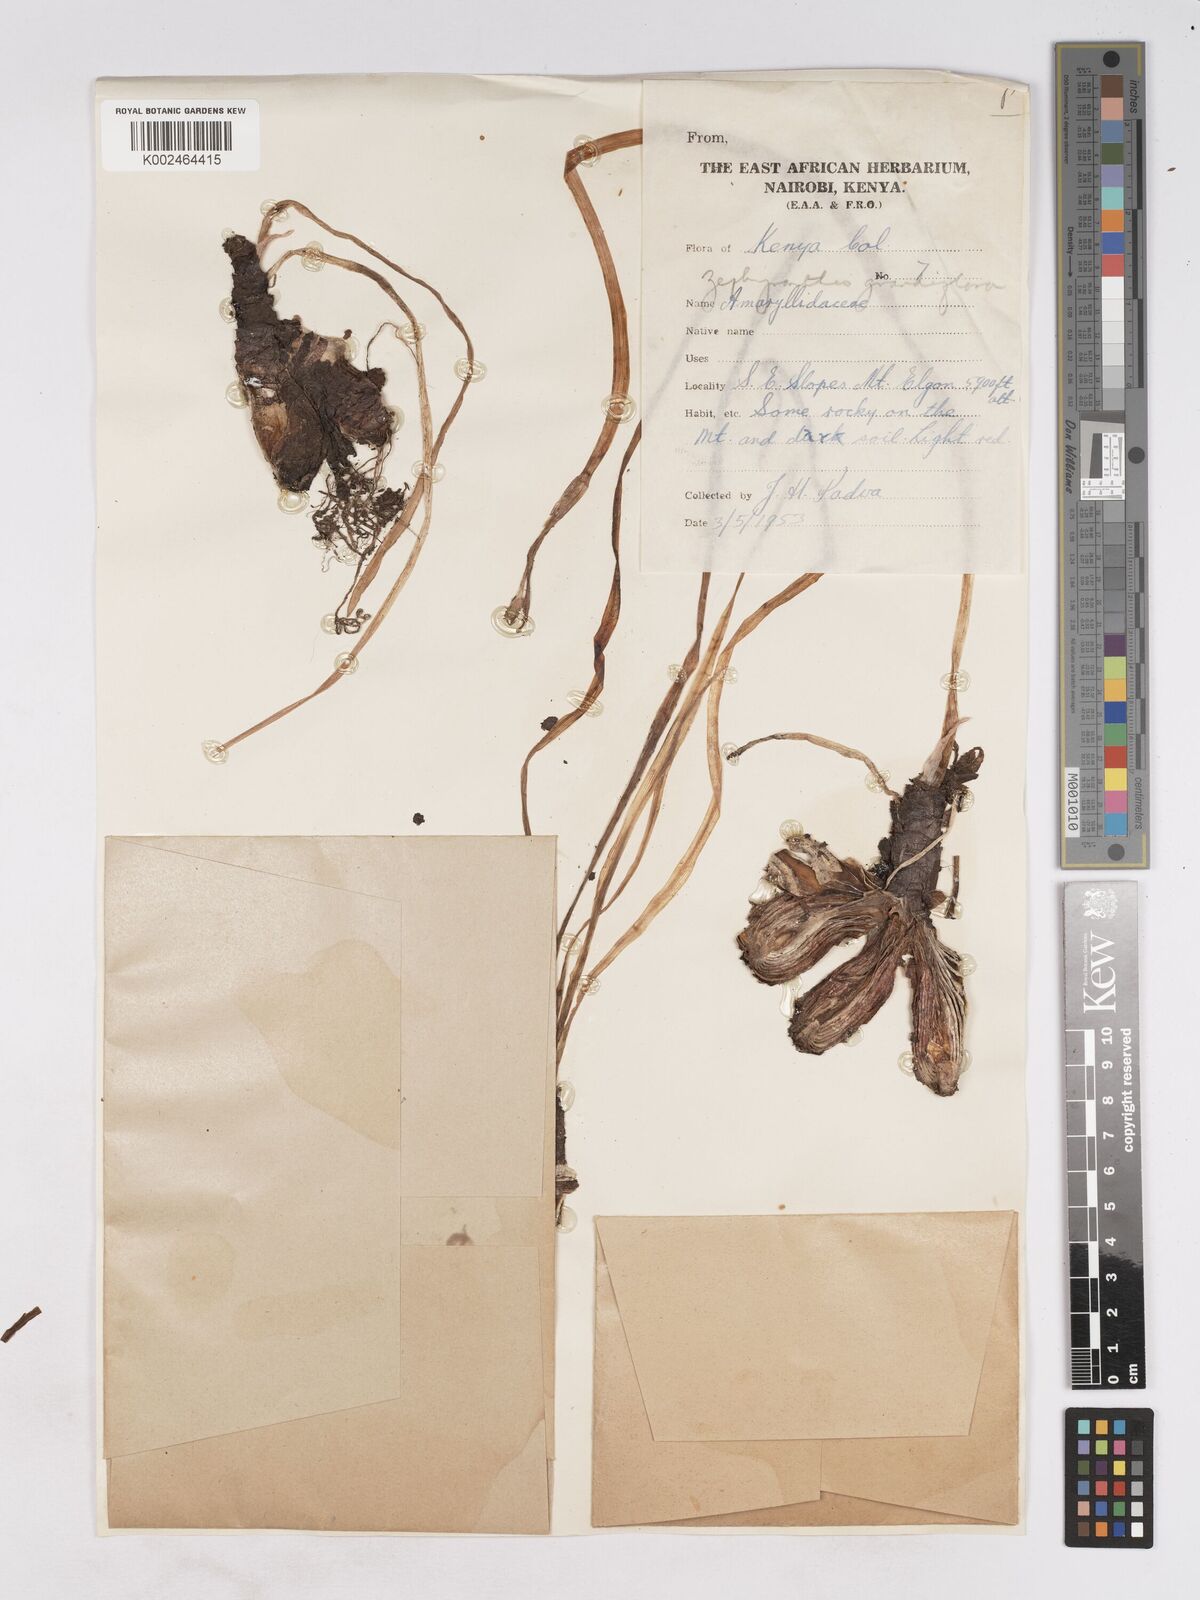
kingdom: Plantae
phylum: Tracheophyta
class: Liliopsida
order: Asparagales
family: Amaryllidaceae
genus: Zephyranthes
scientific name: Zephyranthes minuta
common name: Pink rain lily
